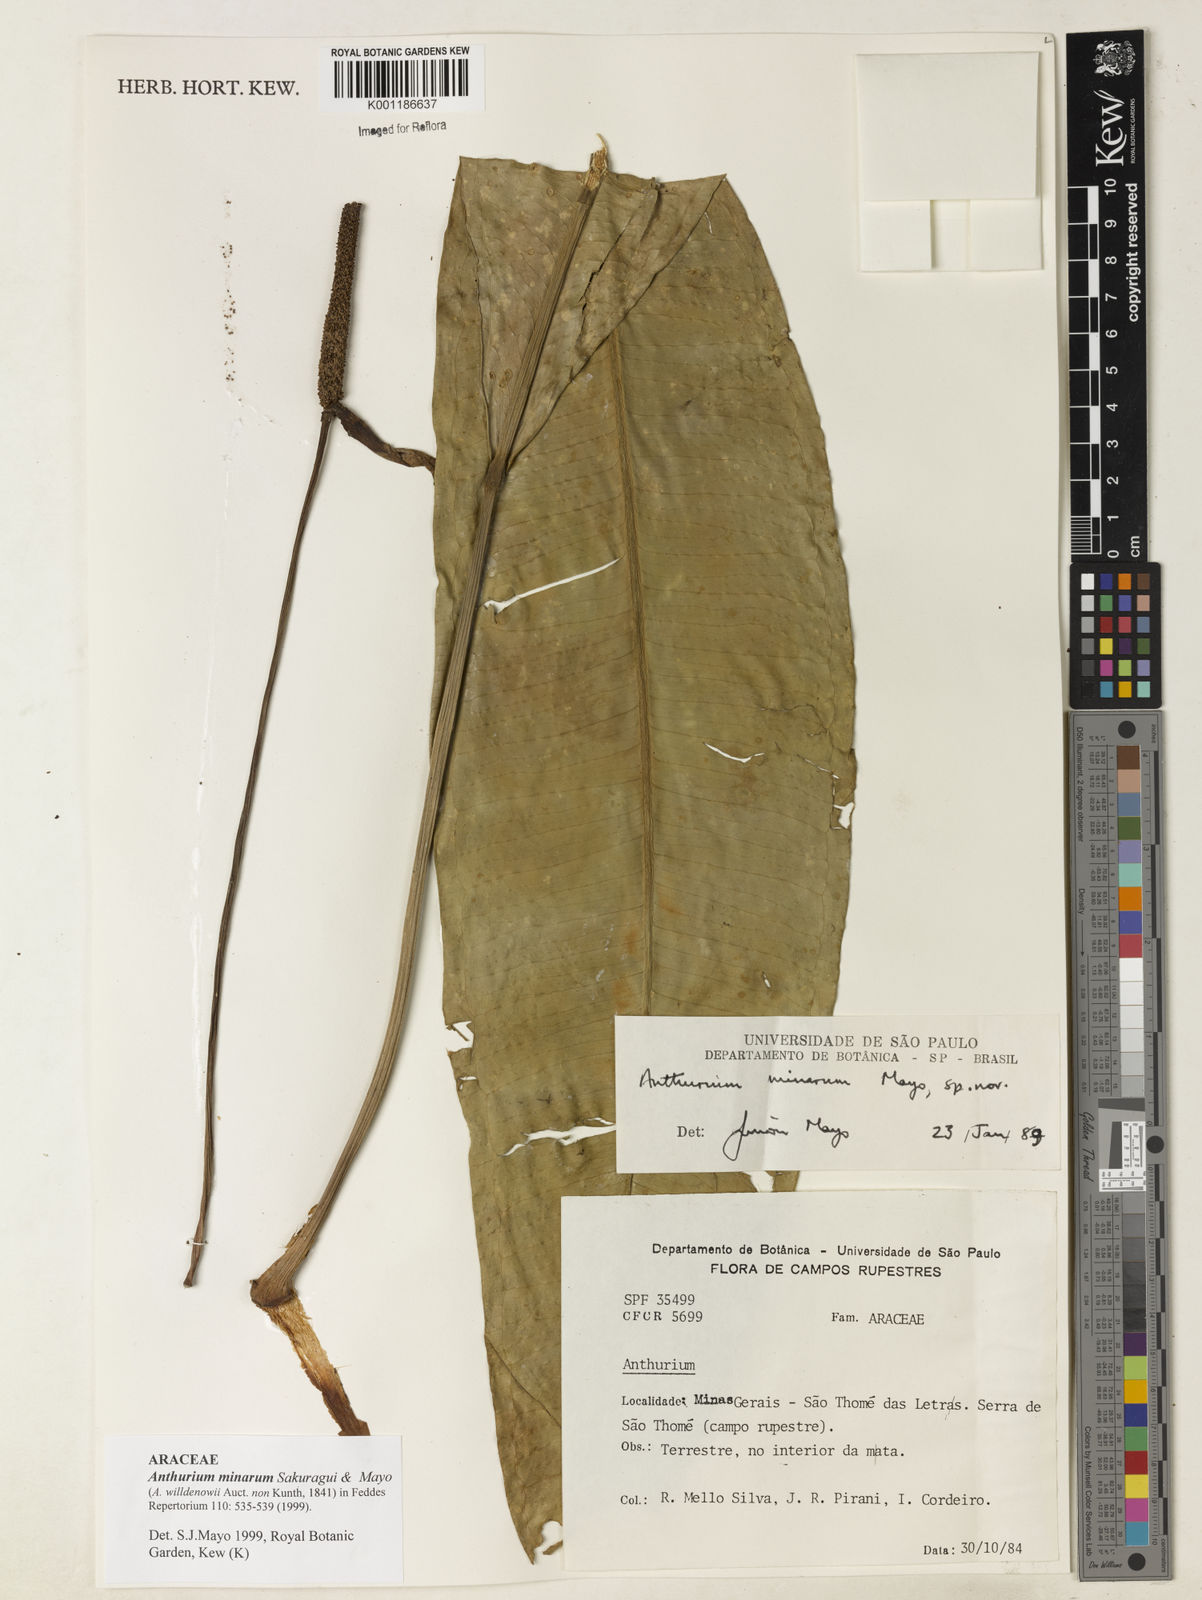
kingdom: Plantae
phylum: Tracheophyta
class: Liliopsida
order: Alismatales
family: Araceae
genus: Anthurium
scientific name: Anthurium minarum
